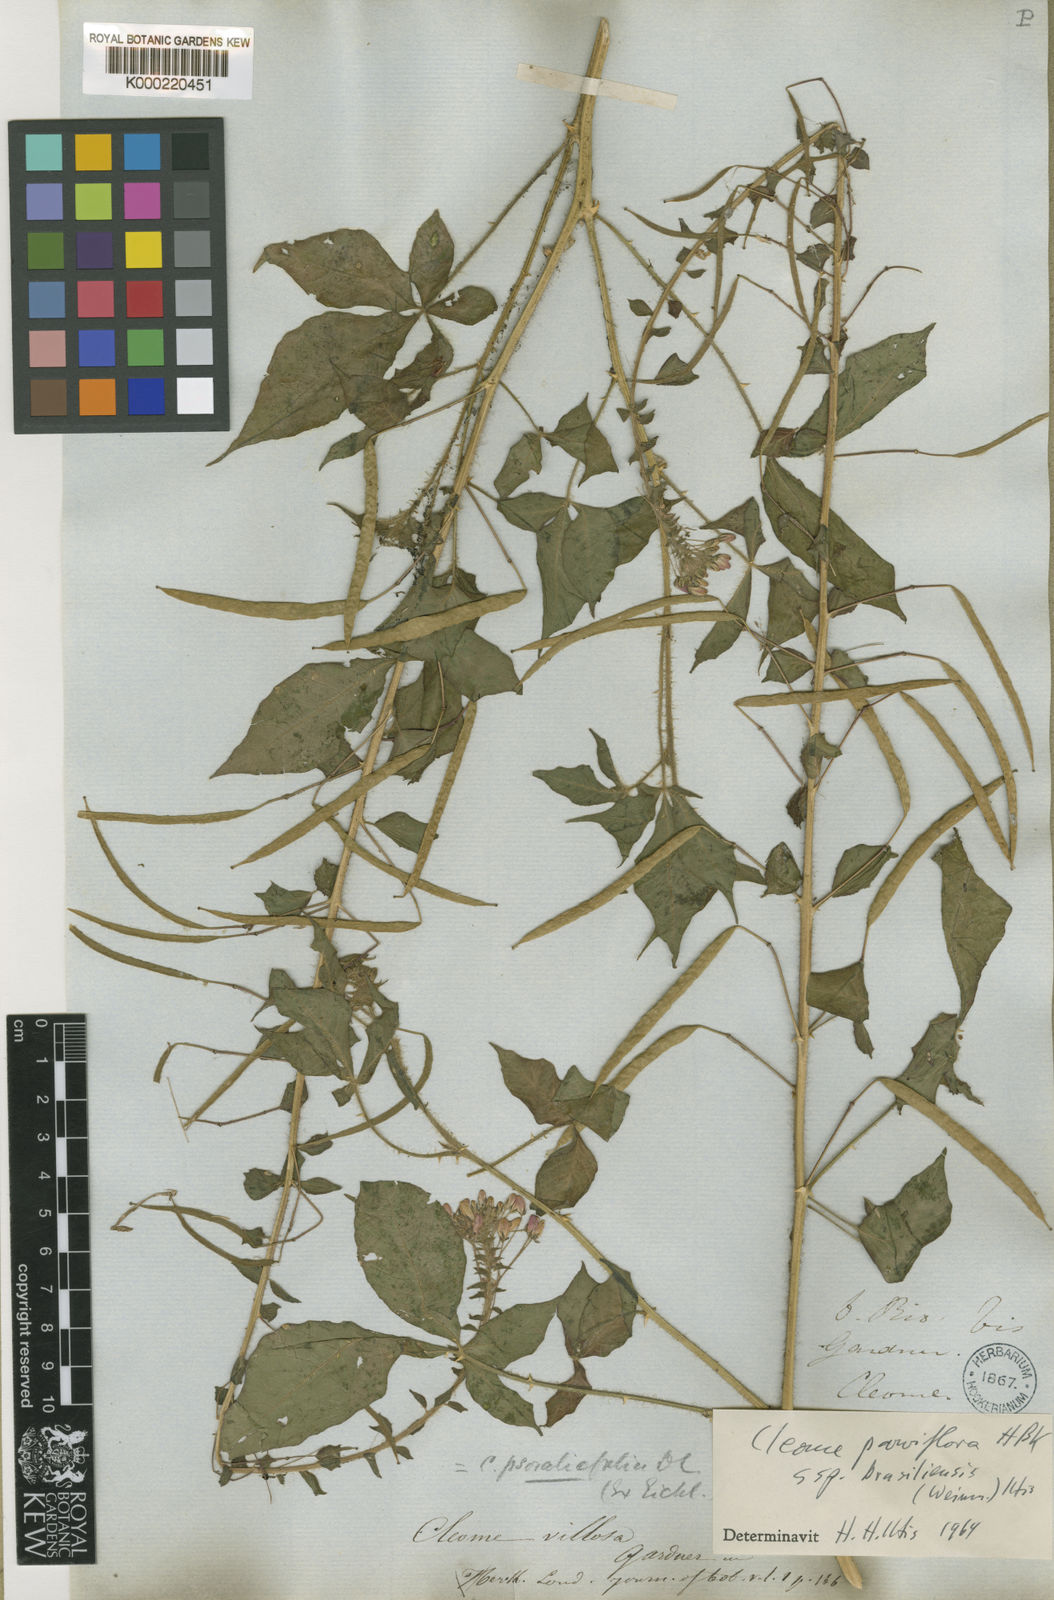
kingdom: Plantae
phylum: Tracheophyta
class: Magnoliopsida
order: Brassicales
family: Cleomaceae
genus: Tarenaya
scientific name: Tarenaya psoraleifolia
